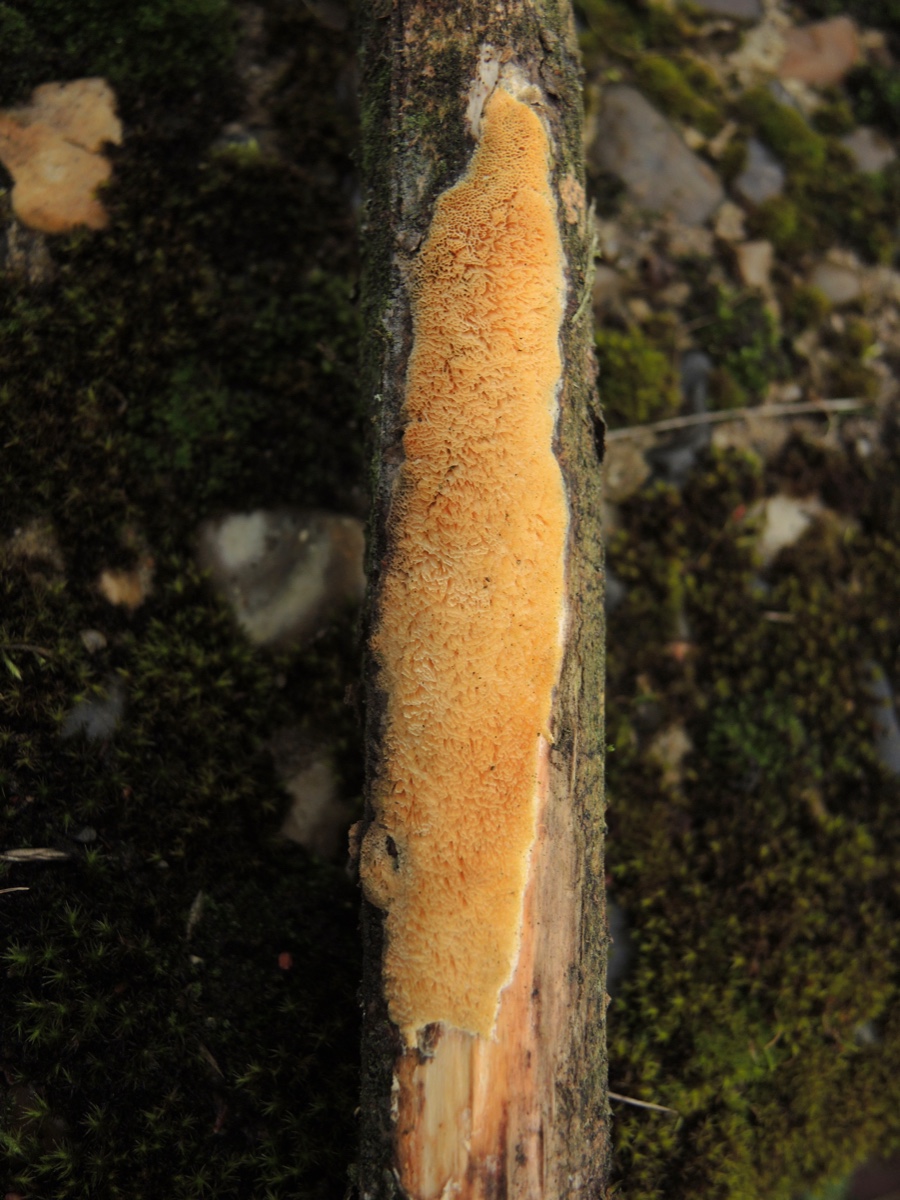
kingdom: Fungi
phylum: Basidiomycota
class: Agaricomycetes
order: Polyporales
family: Steccherinaceae
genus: Antella
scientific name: Antella niemelaei
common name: grovporet elastikporesvamp
